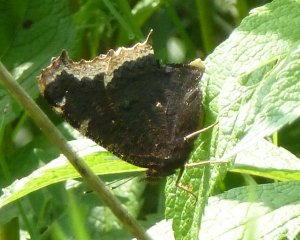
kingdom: Animalia
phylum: Arthropoda
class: Insecta
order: Lepidoptera
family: Nymphalidae
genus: Nymphalis
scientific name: Nymphalis antiopa
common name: Mourning Cloak
